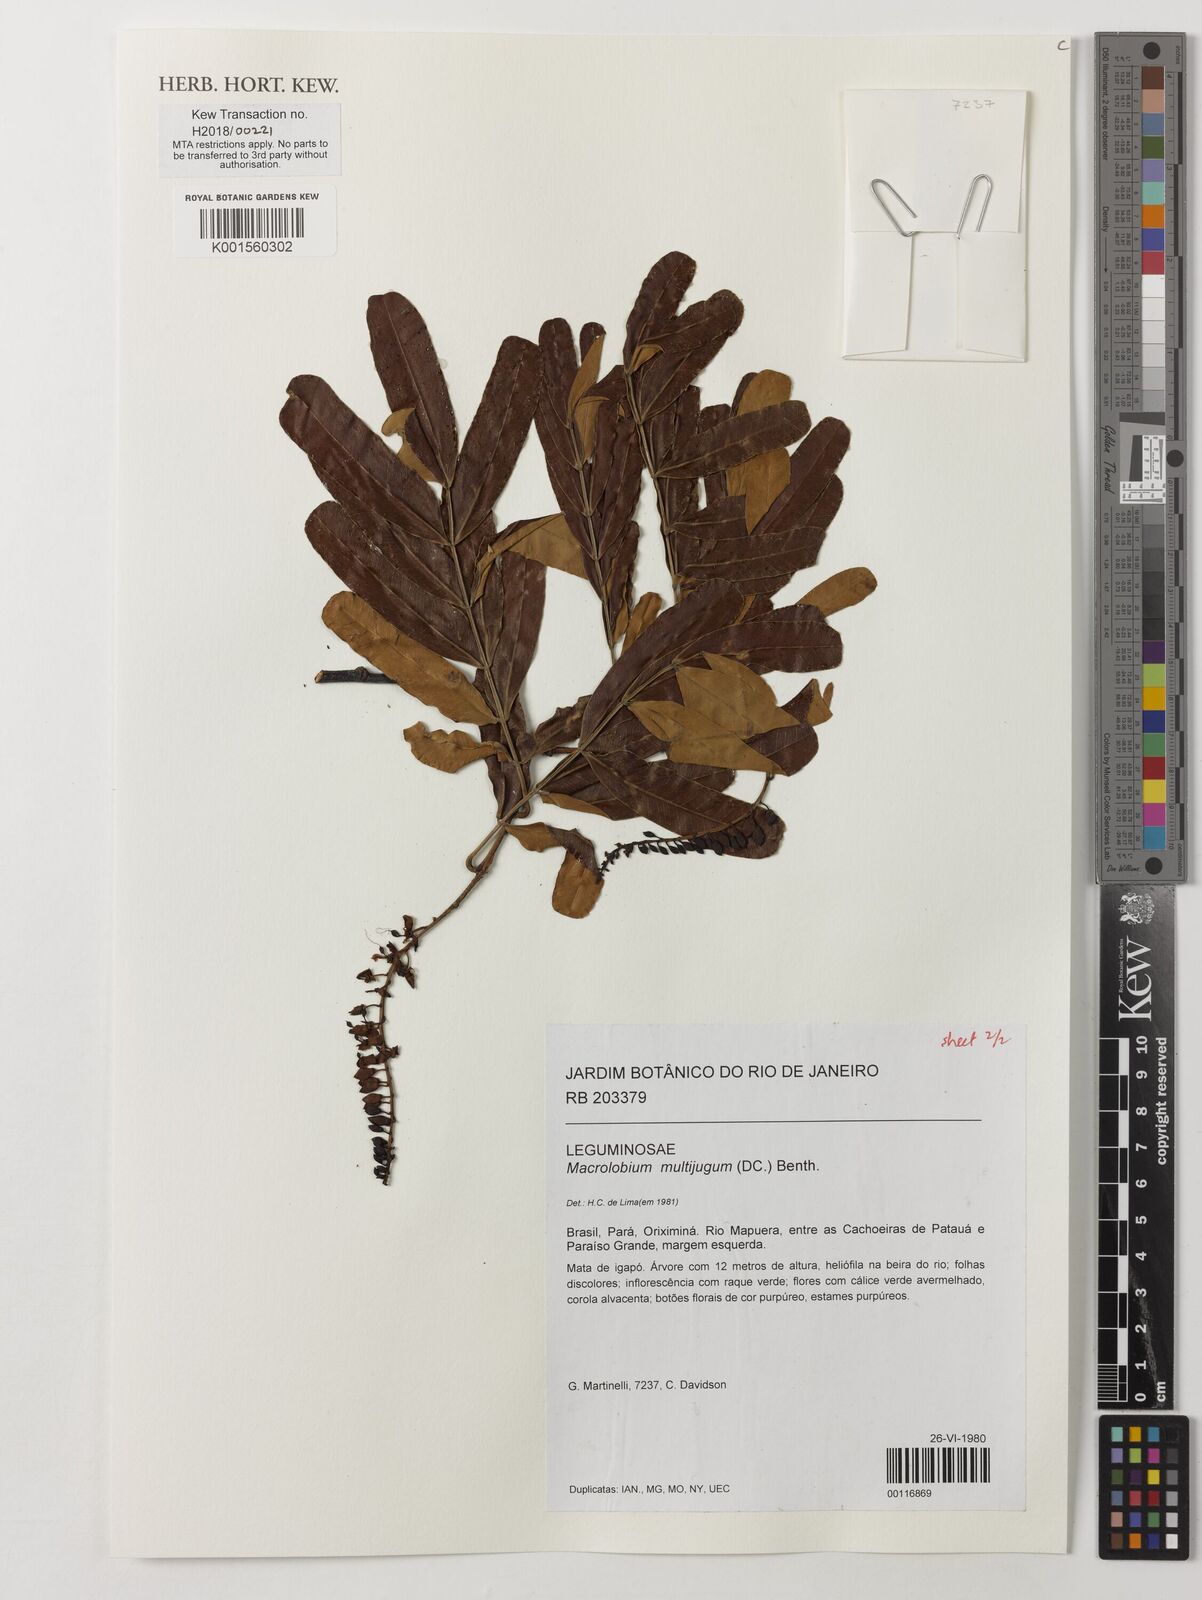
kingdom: Plantae
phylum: Tracheophyta
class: Magnoliopsida
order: Fabales
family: Fabaceae
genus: Macrolobium
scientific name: Macrolobium multijugum
